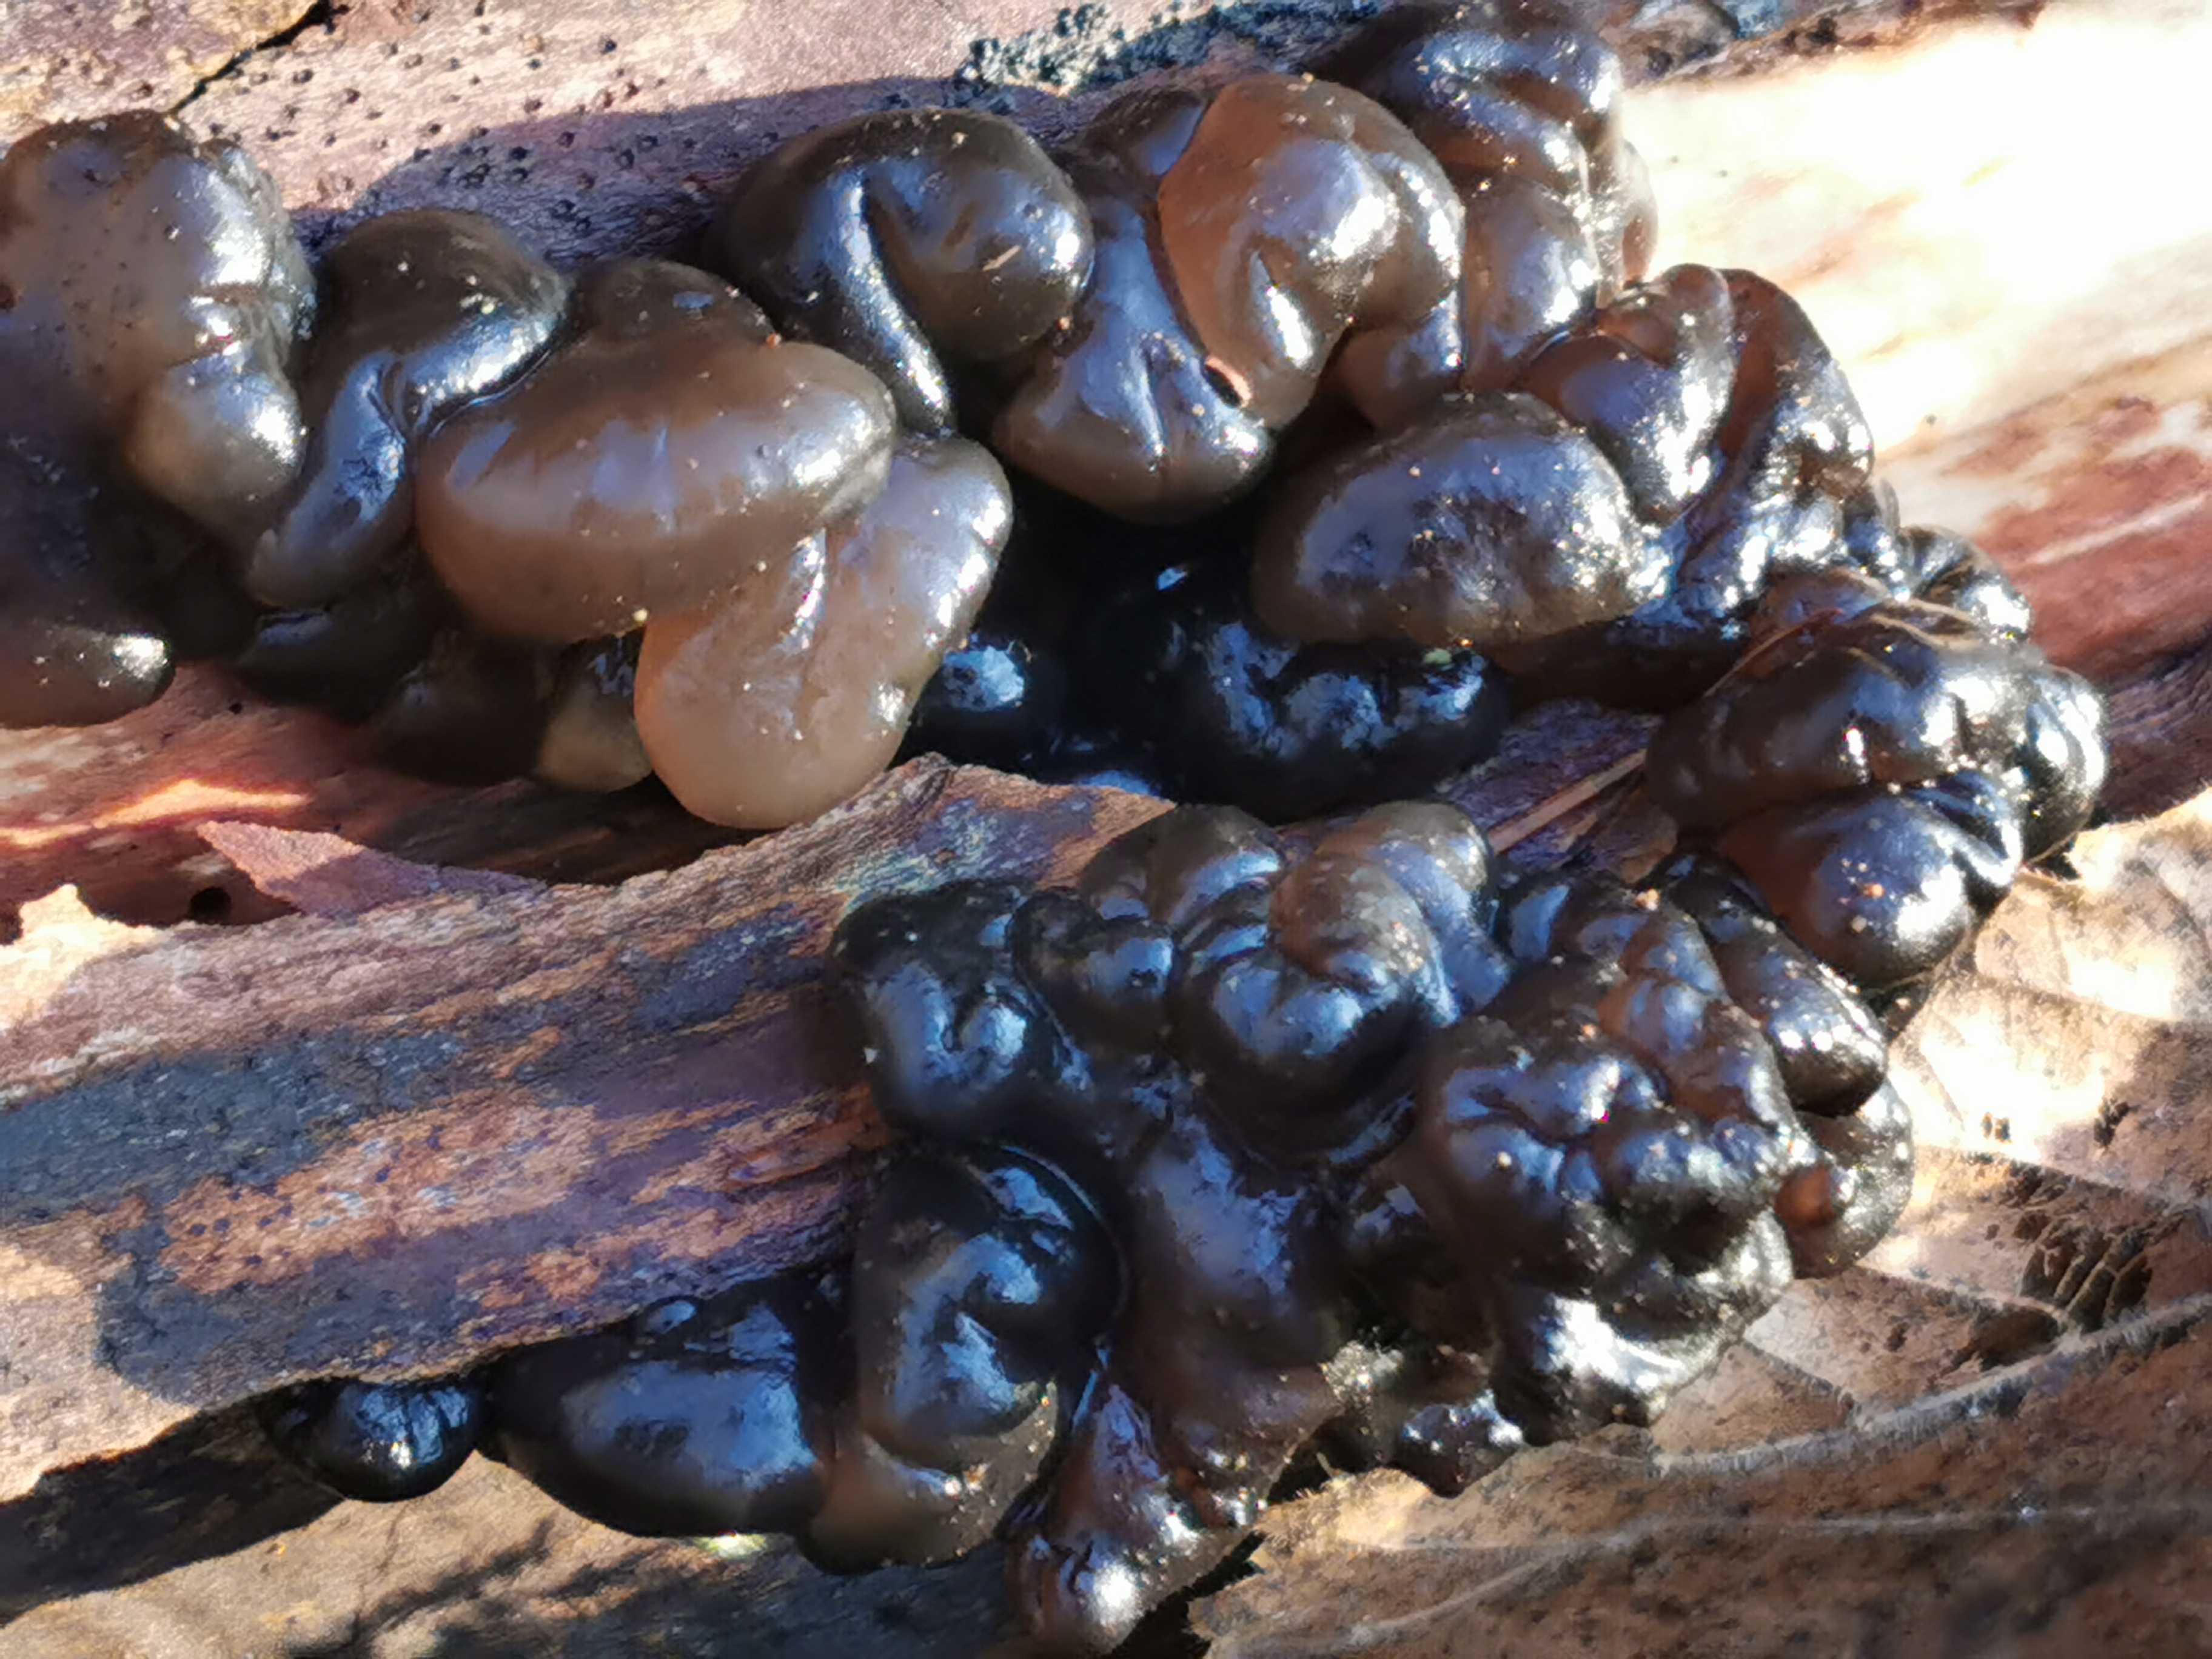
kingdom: Fungi
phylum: Ascomycota
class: Leotiomycetes
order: Helotiales
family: Gelatinodiscaceae
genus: Ascotremella
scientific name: Ascotremella faginea
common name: hjerne-bævreskive
